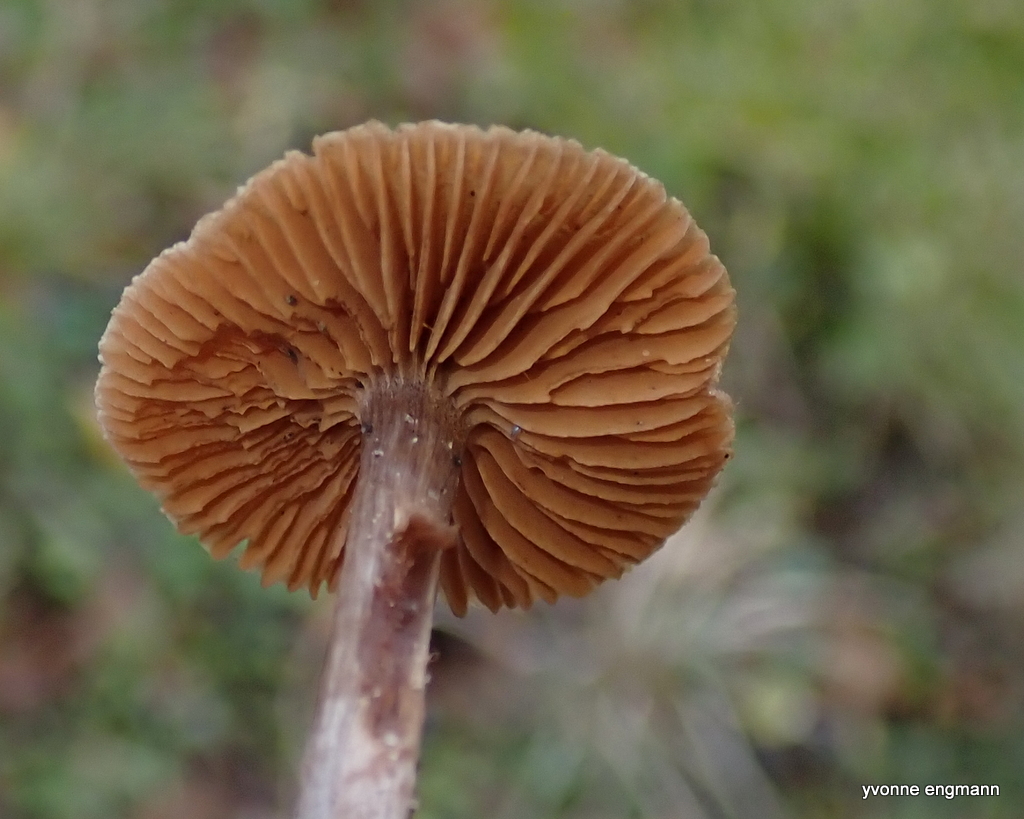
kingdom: Fungi
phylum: Basidiomycota
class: Agaricomycetes
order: Agaricales
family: Cortinariaceae
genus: Cortinarius
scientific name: Cortinarius decipiens
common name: mørkpuklet slørhat
